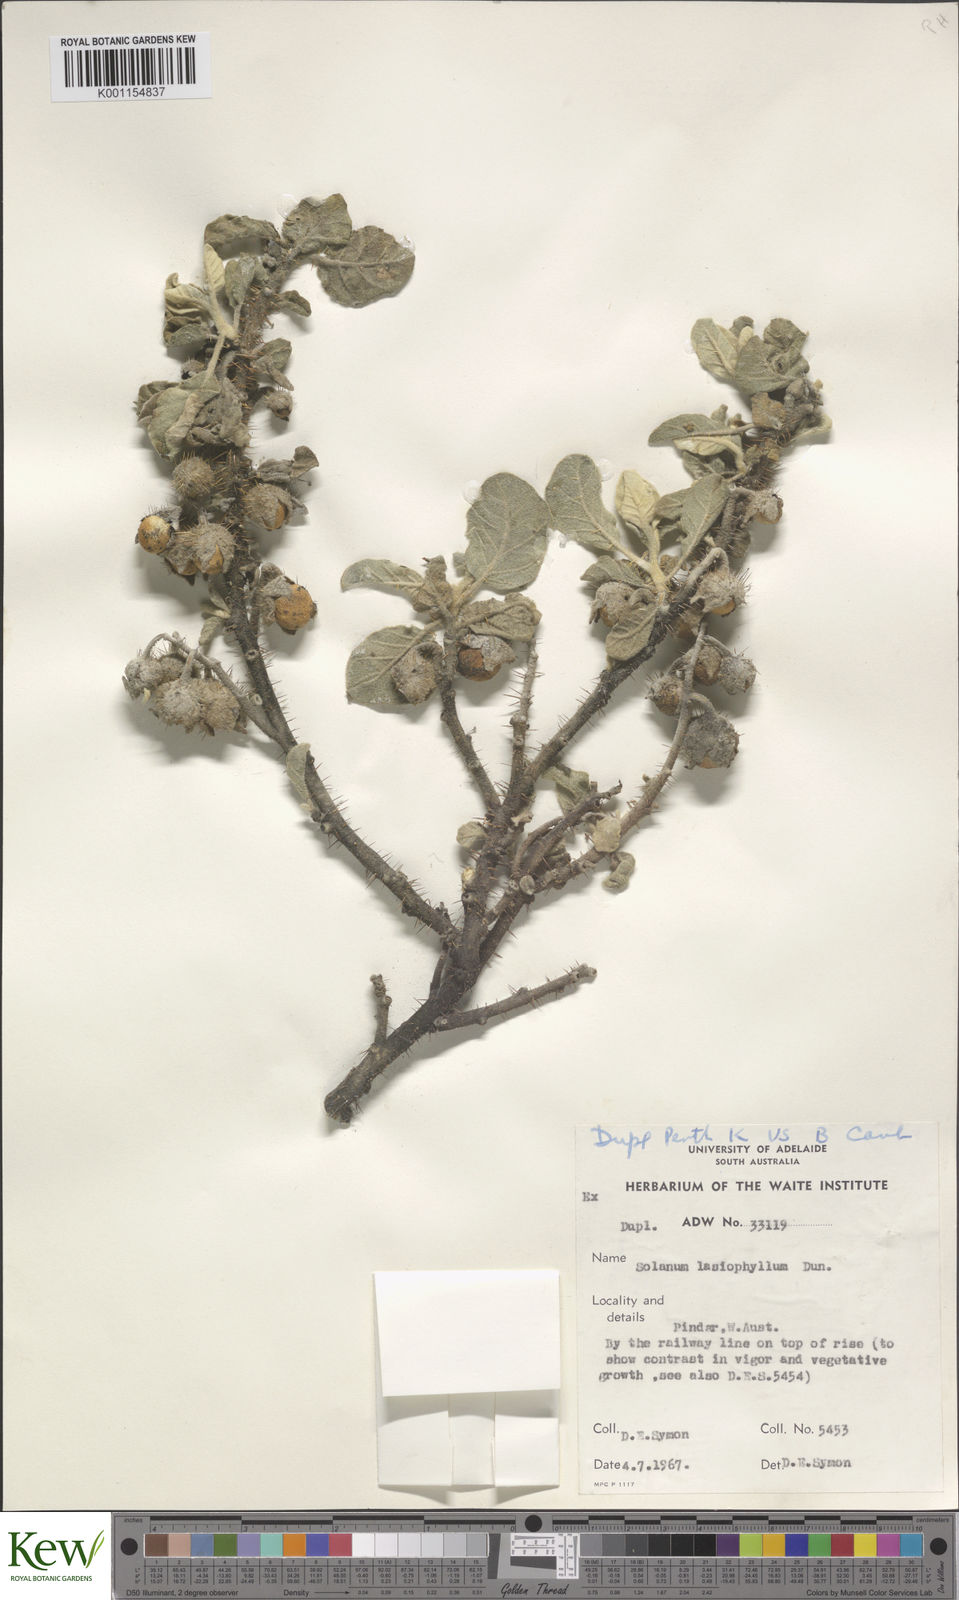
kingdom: Plantae
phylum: Tracheophyta
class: Magnoliopsida
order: Solanales
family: Solanaceae
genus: Solanum
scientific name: Solanum lasiophyllum
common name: Flannelbush
